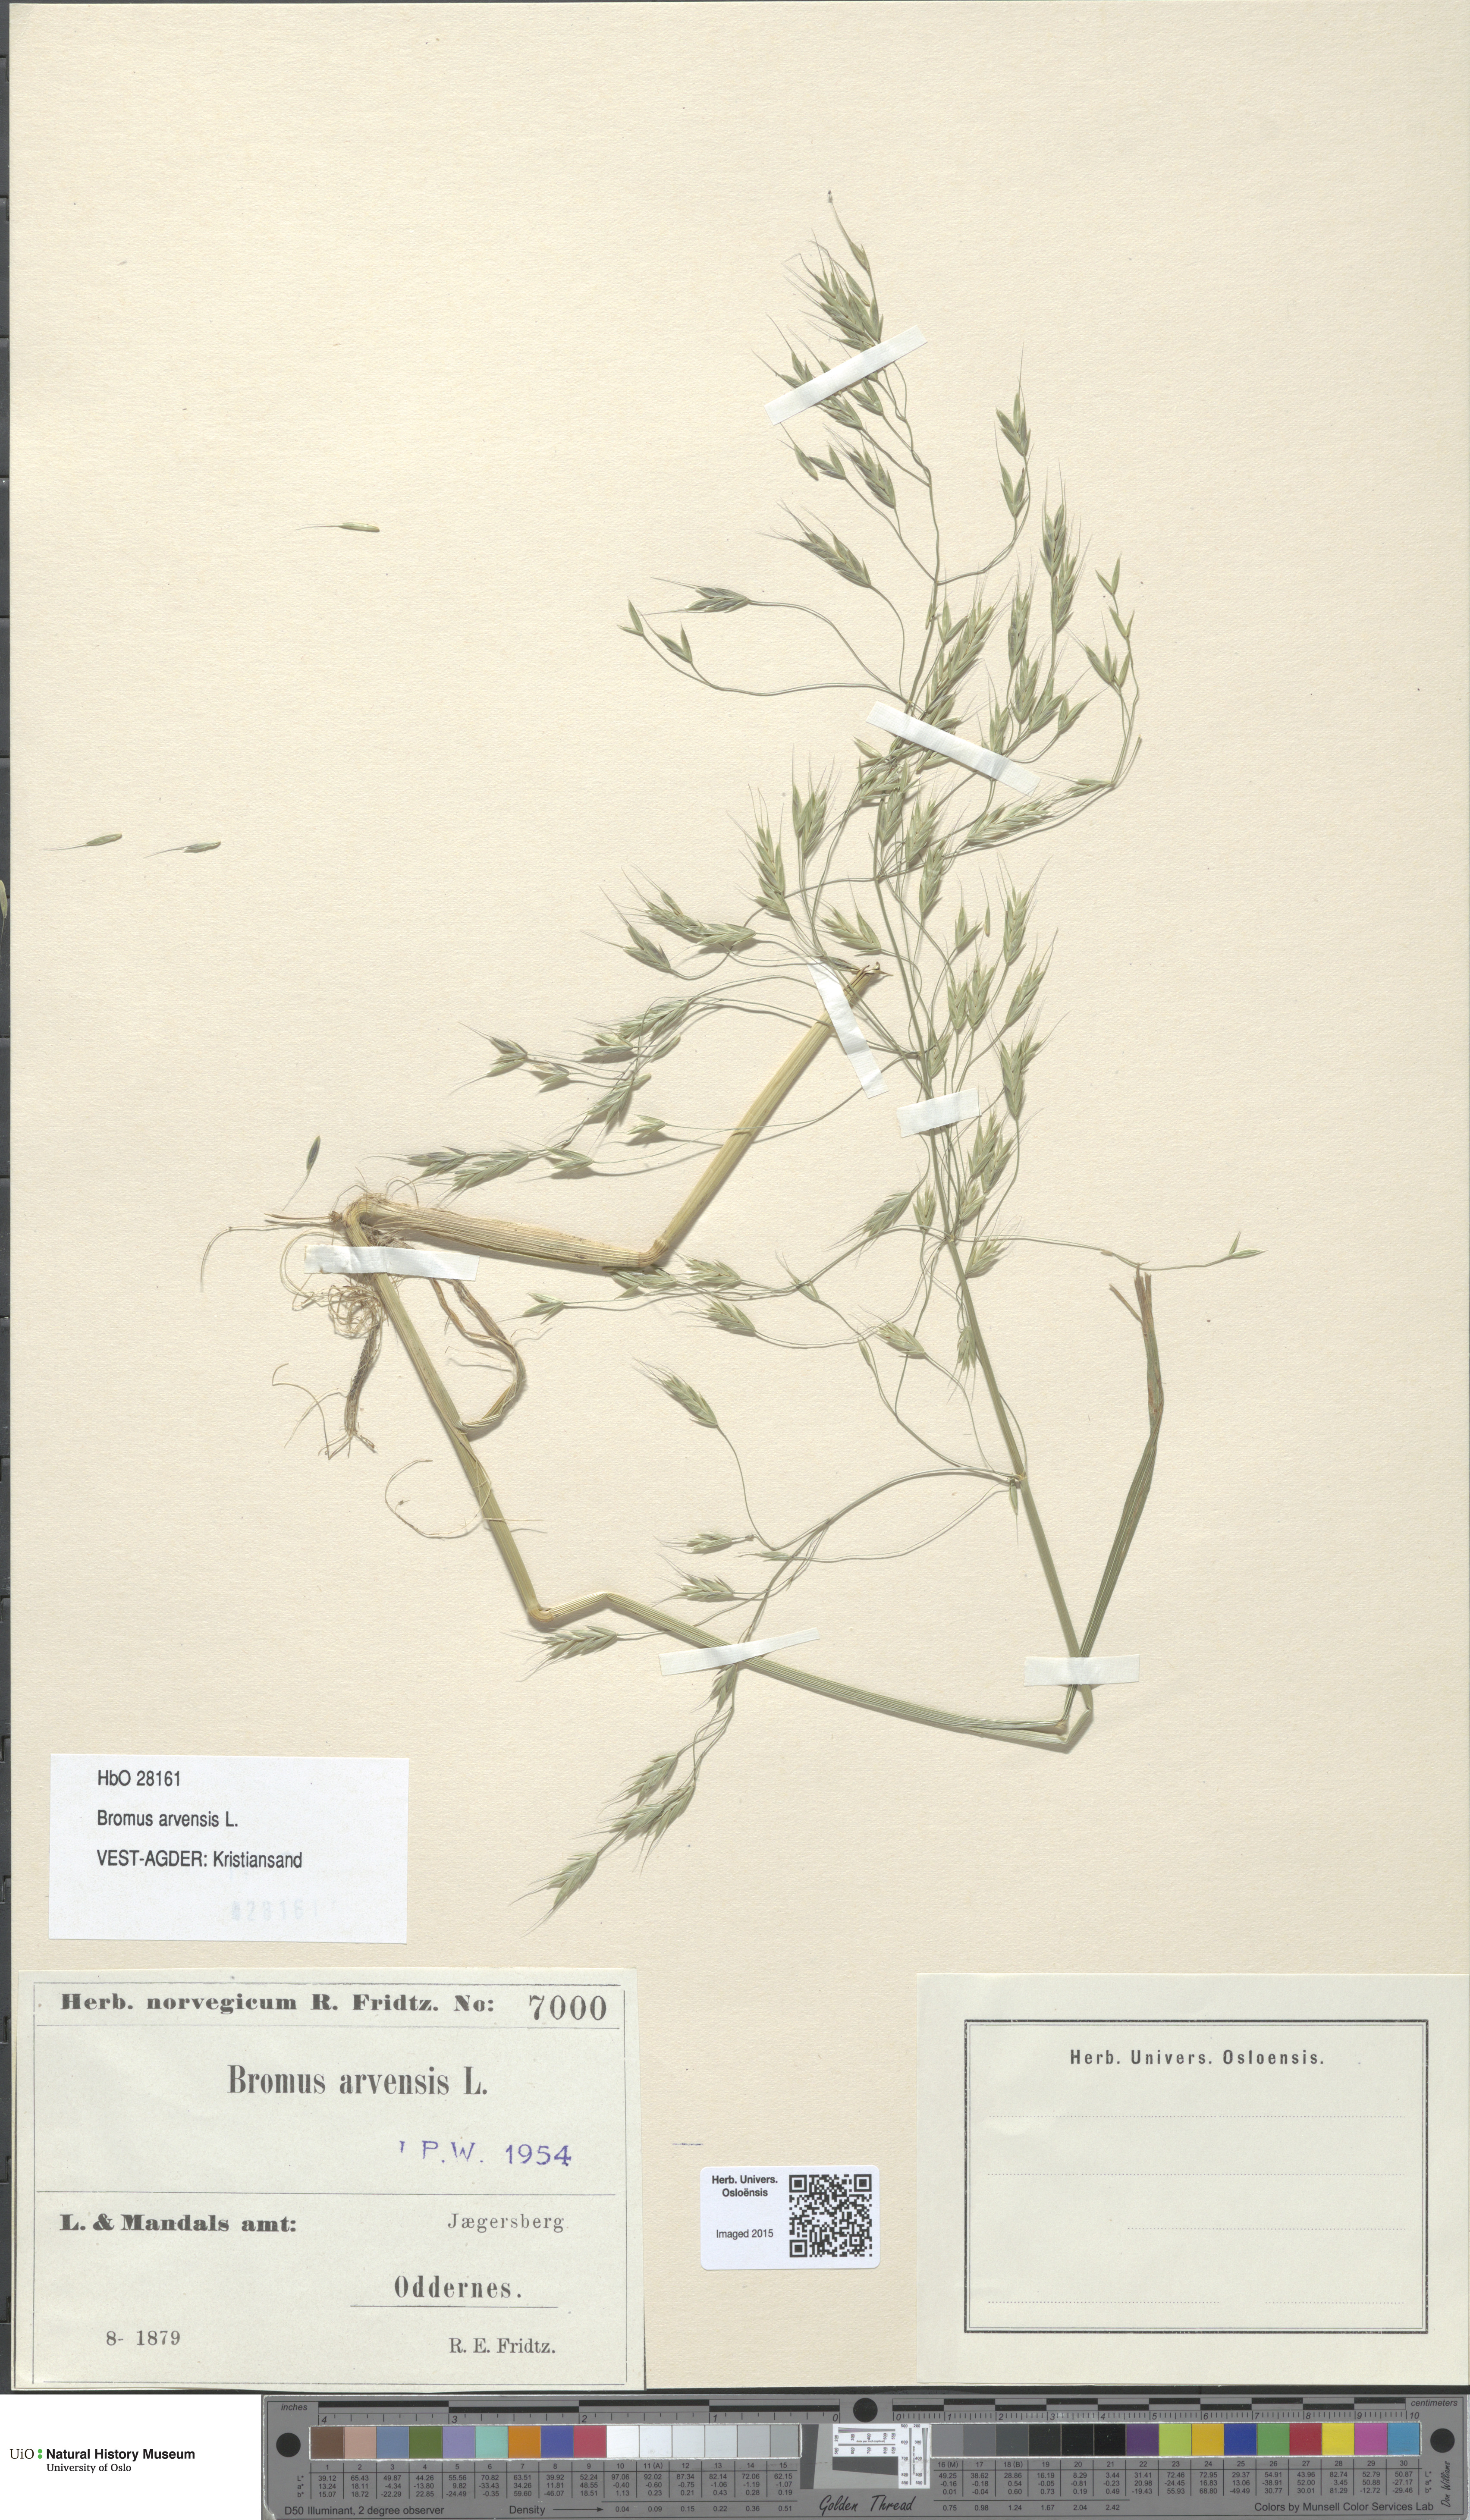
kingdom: Plantae
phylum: Tracheophyta
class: Liliopsida
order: Poales
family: Poaceae
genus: Bromus
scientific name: Bromus arvensis
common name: Field brome
